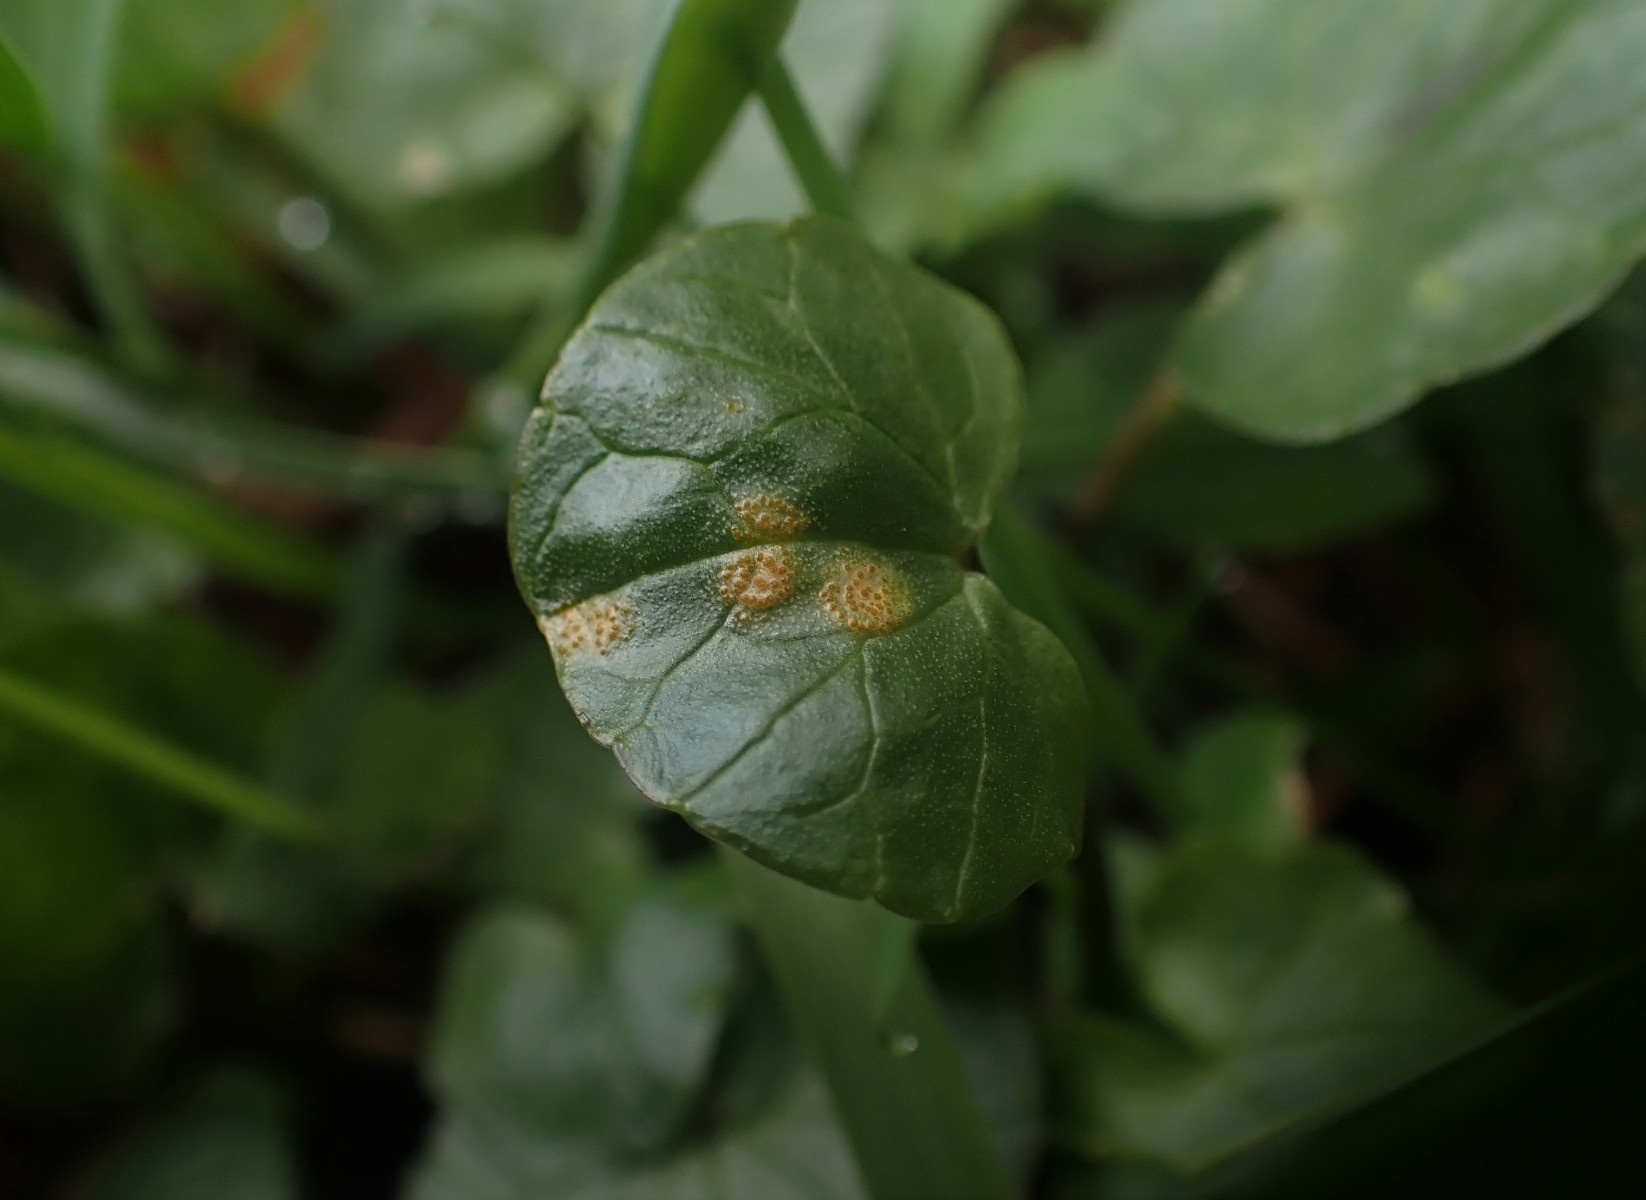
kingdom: Fungi
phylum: Basidiomycota
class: Pucciniomycetes
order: Pucciniales
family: Pucciniaceae
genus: Uromyces
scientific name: Uromyces dactylidis
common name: ranunkel-encellerust
